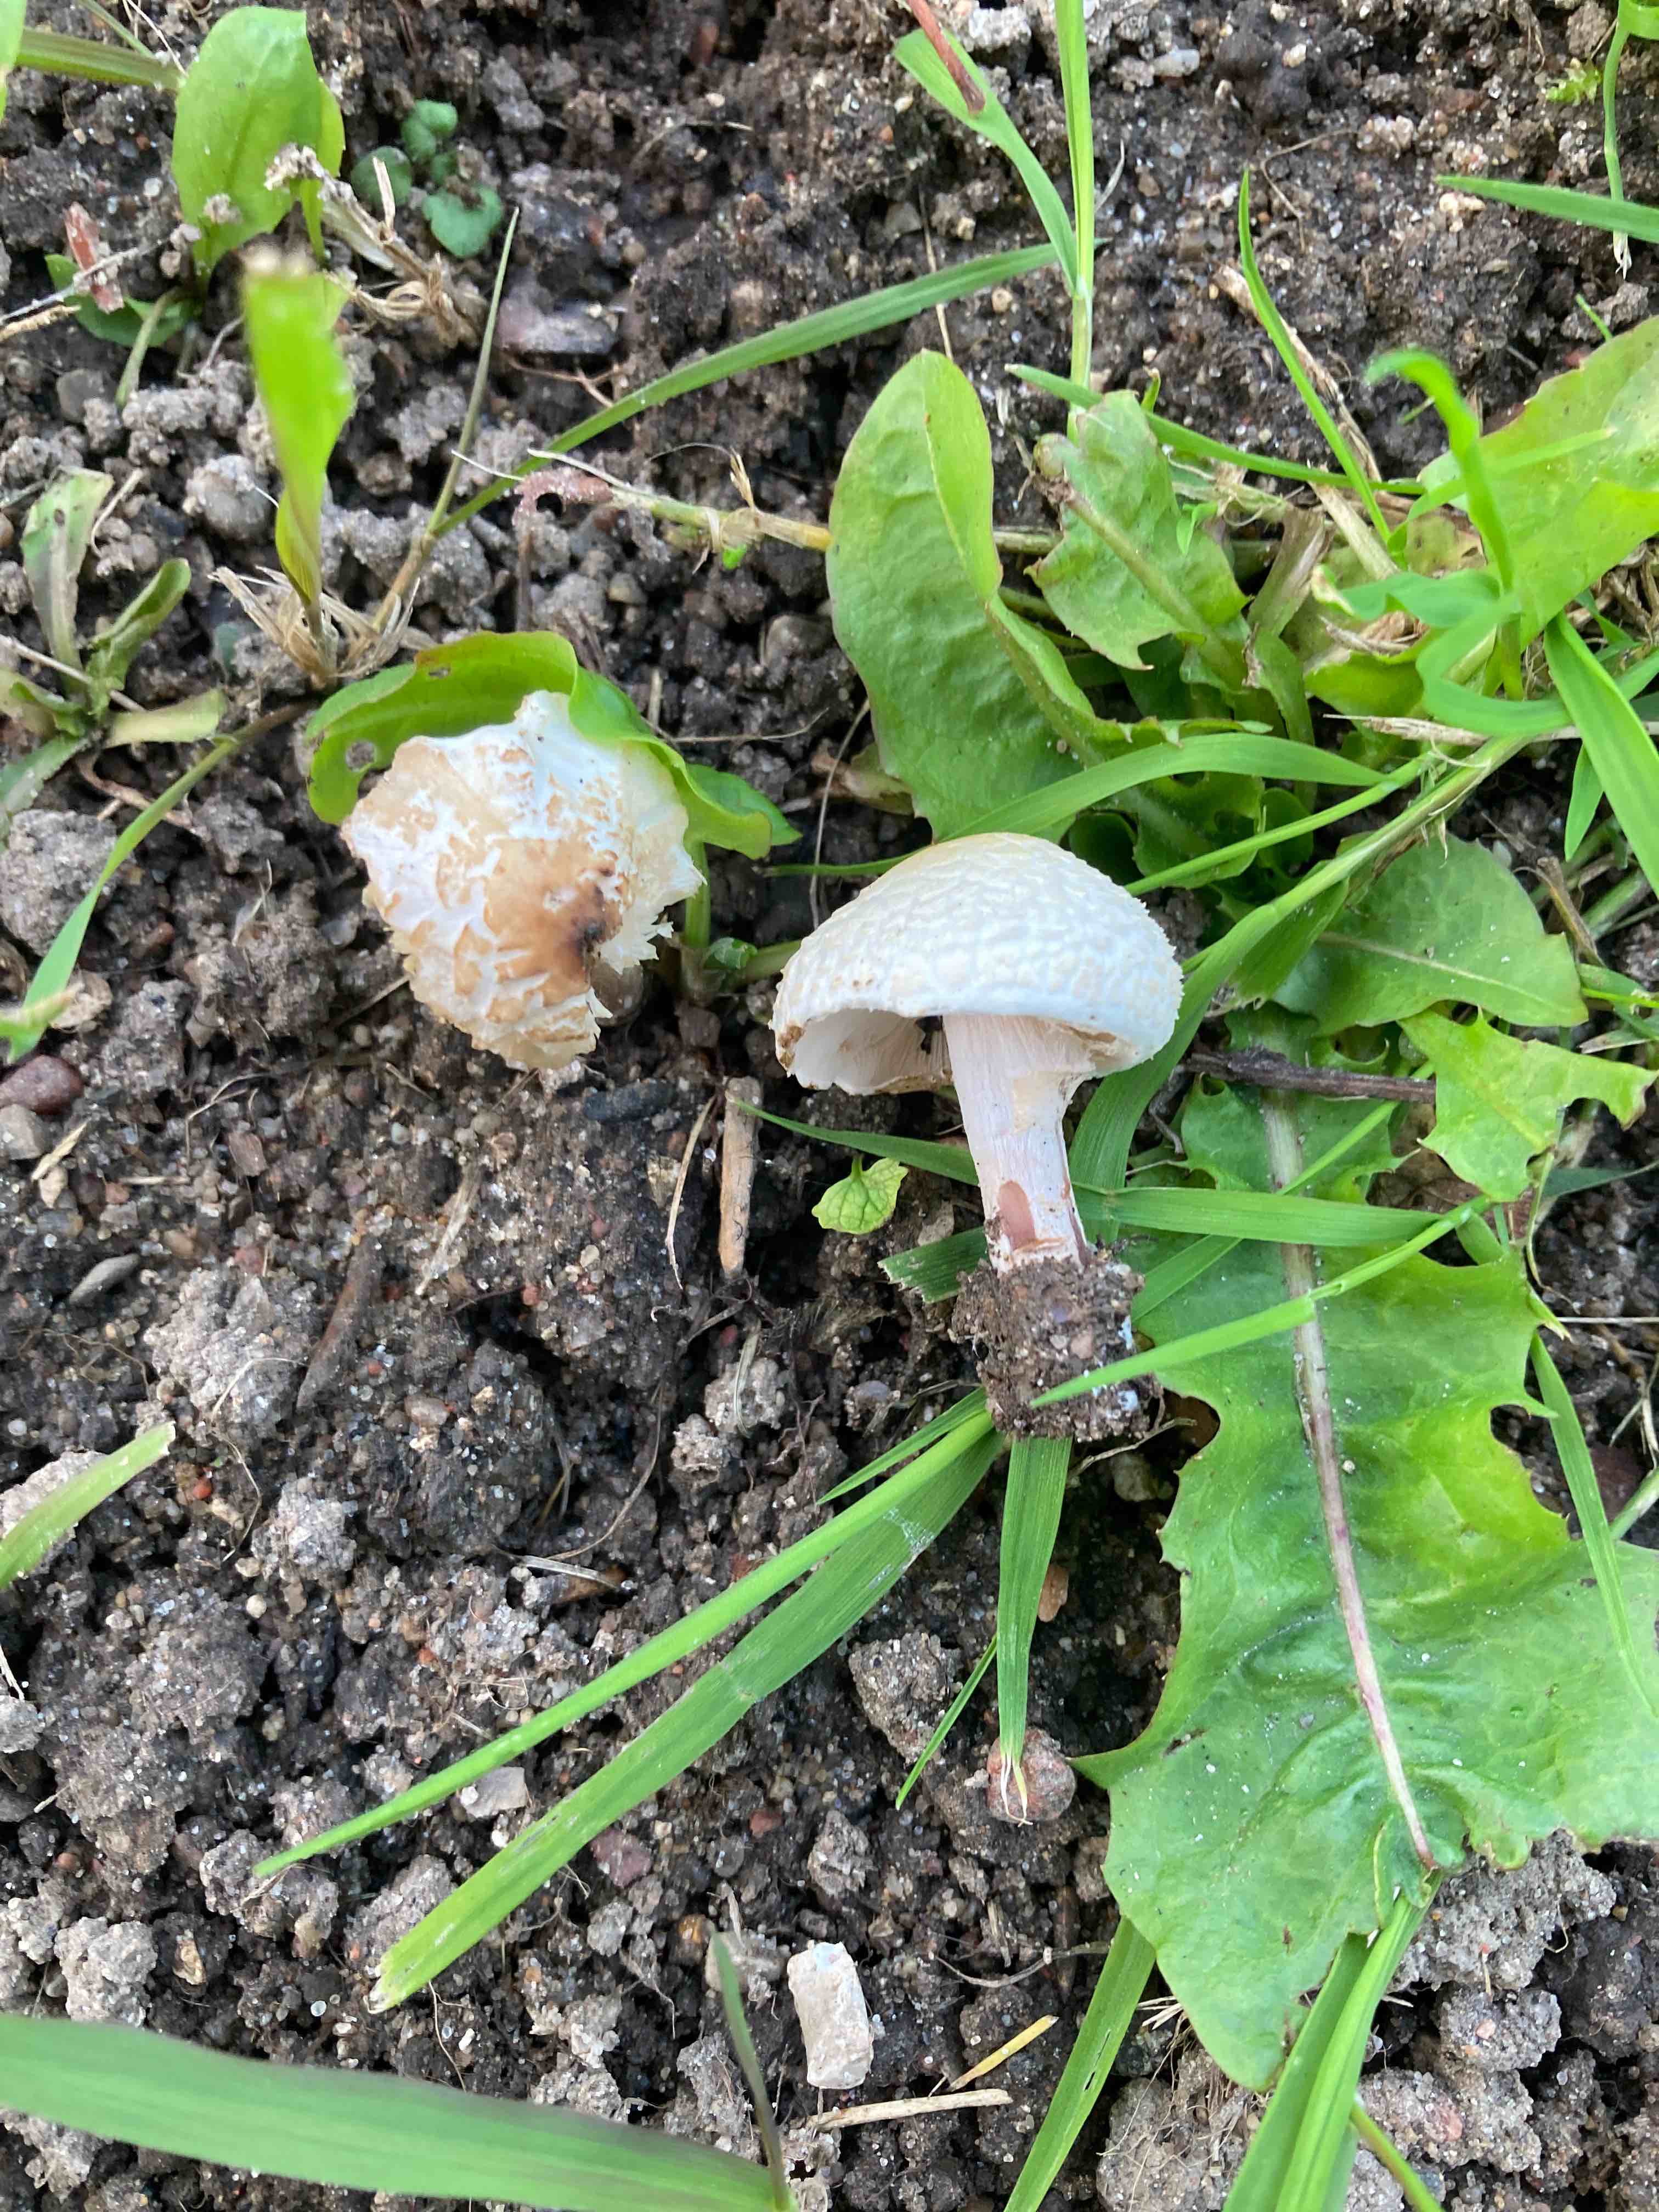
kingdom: Fungi
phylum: Basidiomycota
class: Agaricomycetes
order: Agaricales
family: Agaricaceae
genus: Lepiota
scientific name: Lepiota cristata
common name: stinkende parasolhat
